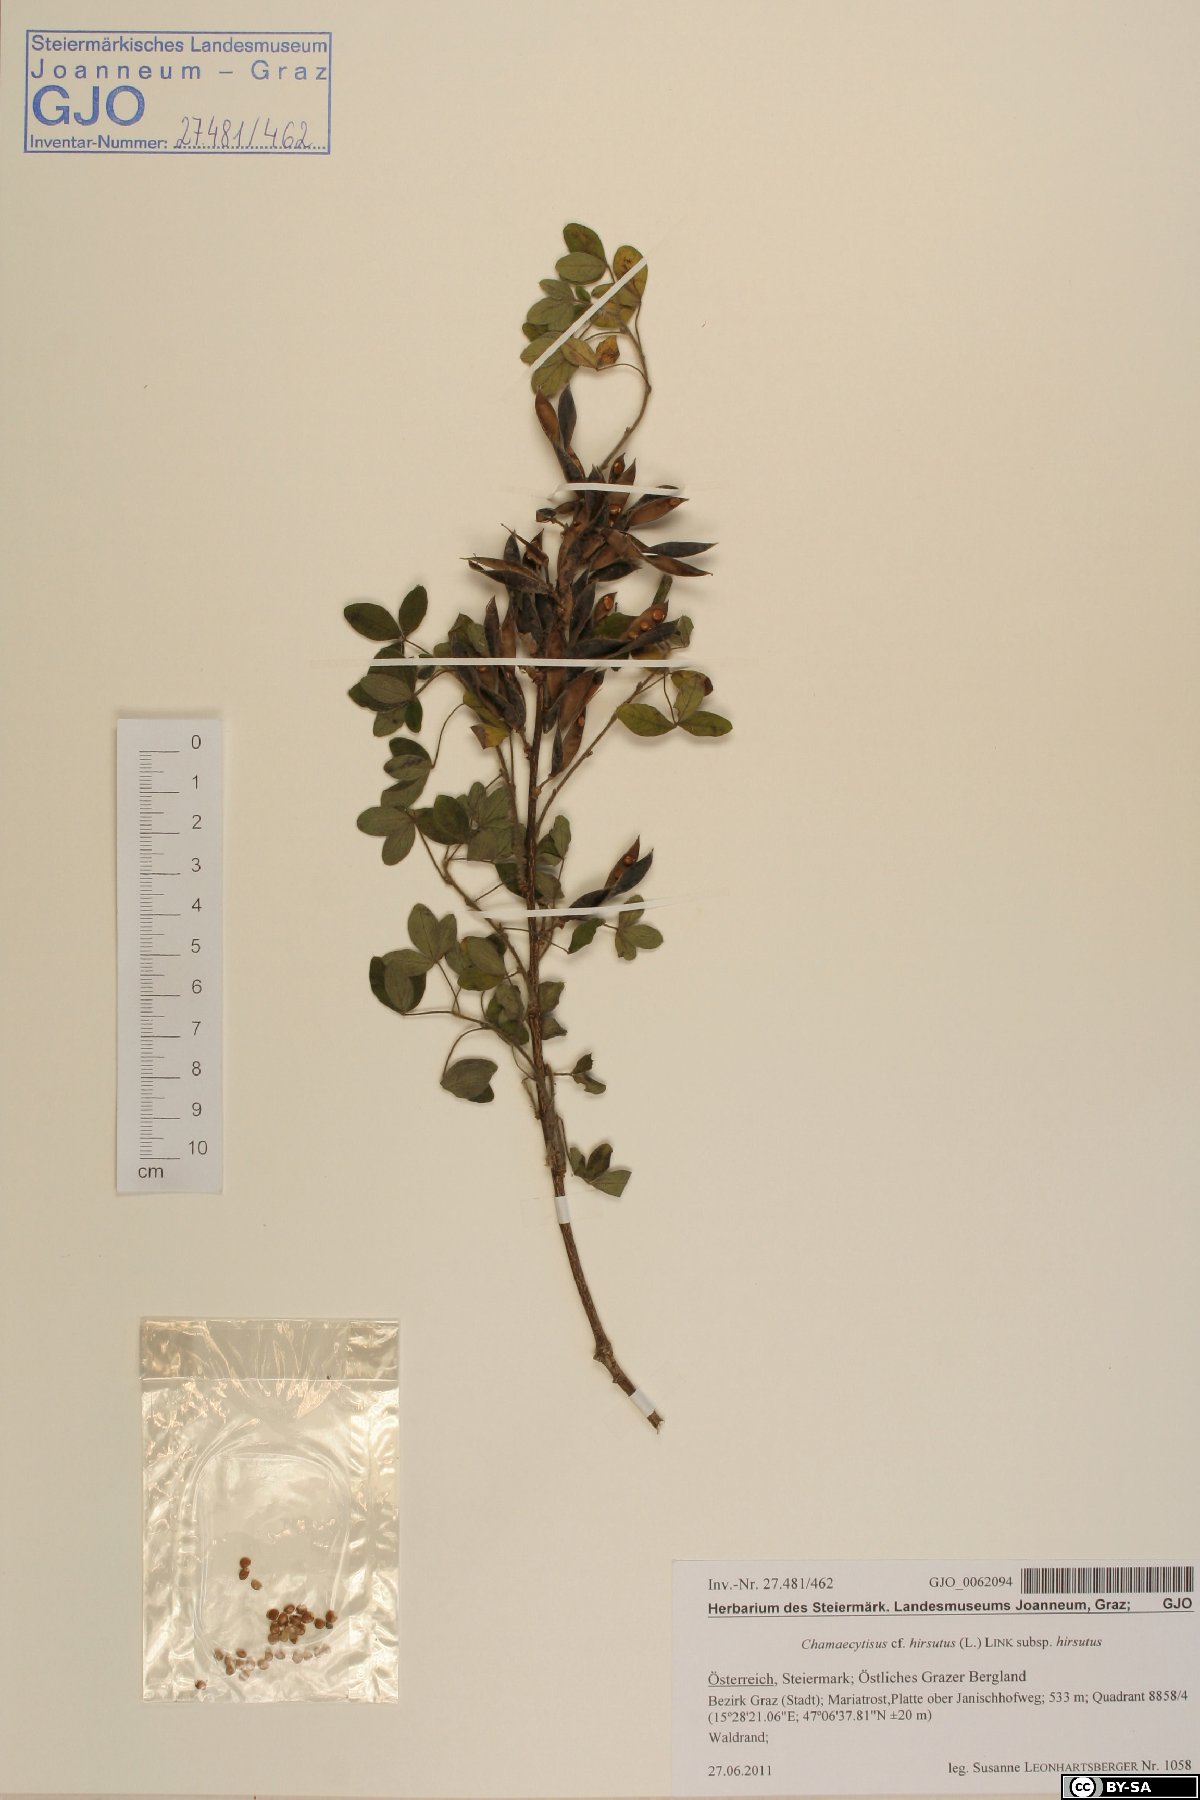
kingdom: Plantae
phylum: Tracheophyta
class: Magnoliopsida
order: Fabales
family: Fabaceae
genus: Chamaecytisus
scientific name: Chamaecytisus hirsutus
